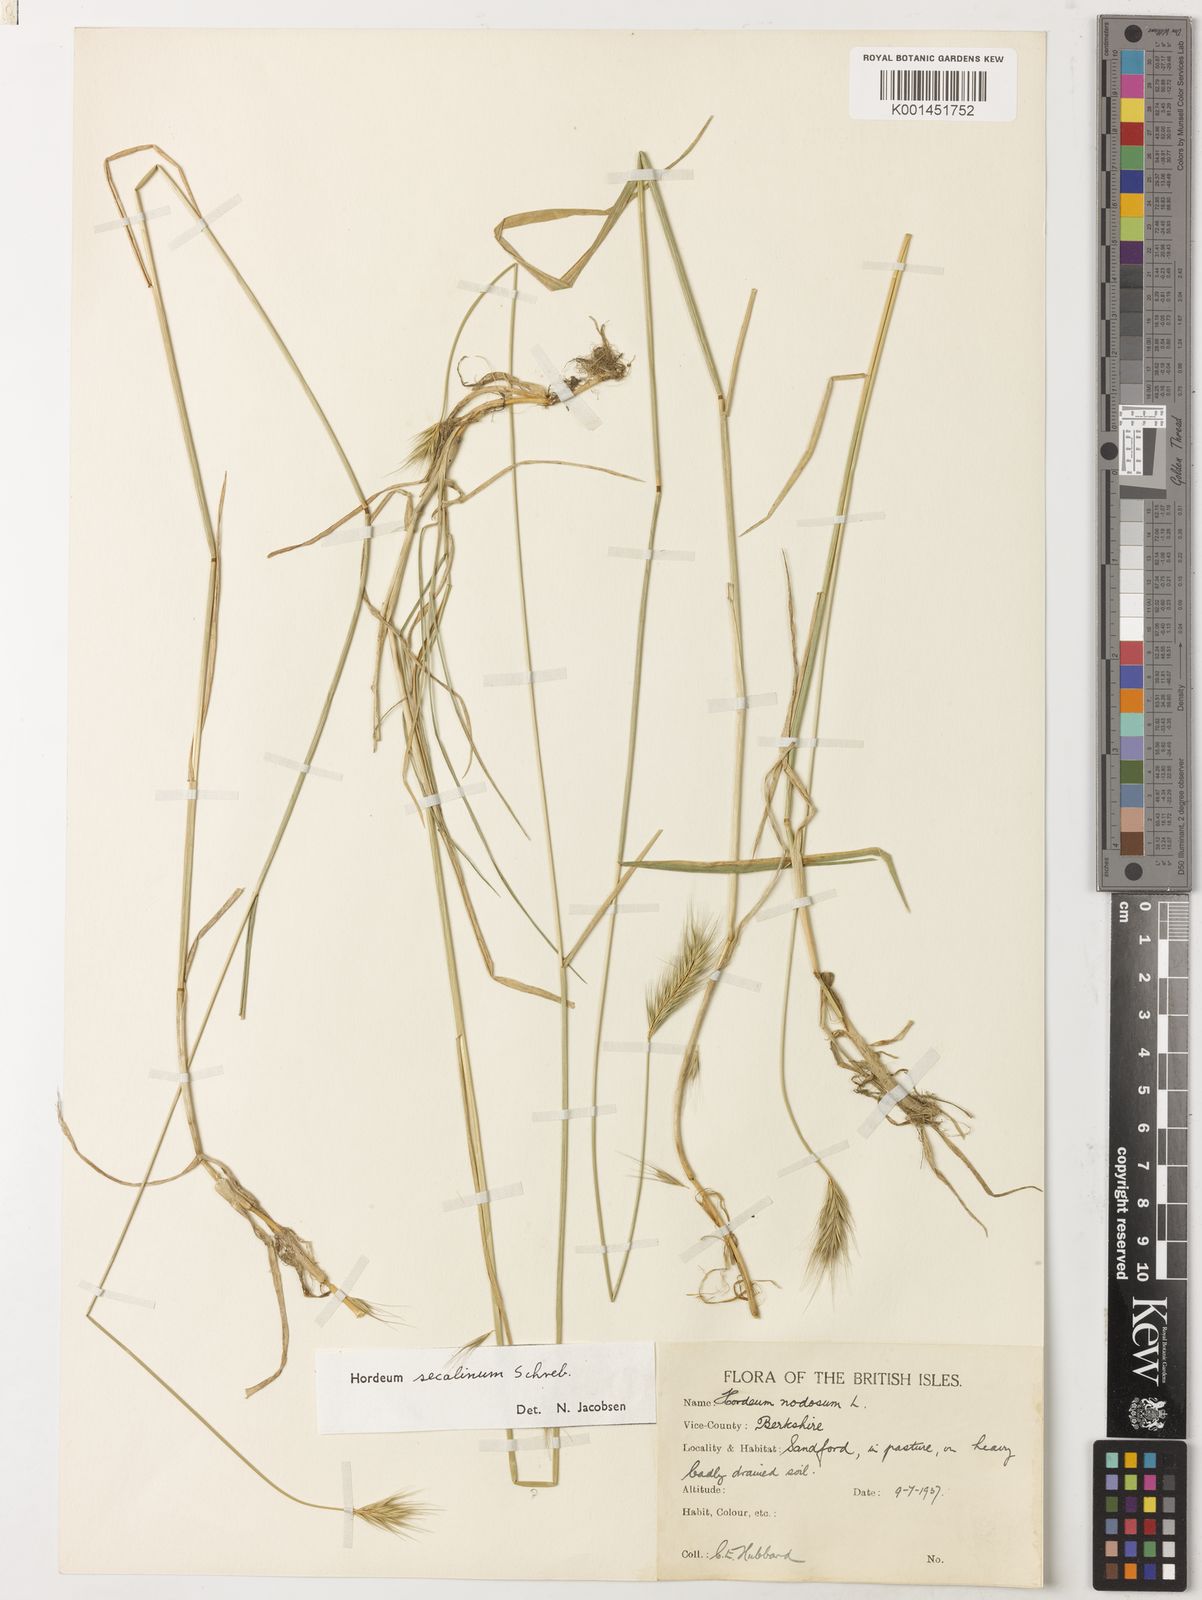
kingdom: Plantae
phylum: Tracheophyta
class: Liliopsida
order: Poales
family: Poaceae
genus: Hordeum
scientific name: Hordeum secalinum
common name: Meadow barley
